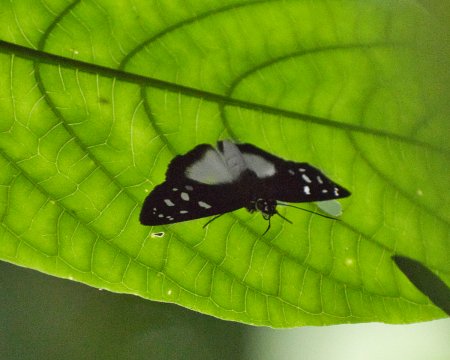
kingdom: Animalia
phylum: Arthropoda
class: Insecta
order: Lepidoptera
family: Hesperiidae
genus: Hyalothyrus
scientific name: Hyalothyrus neleus
